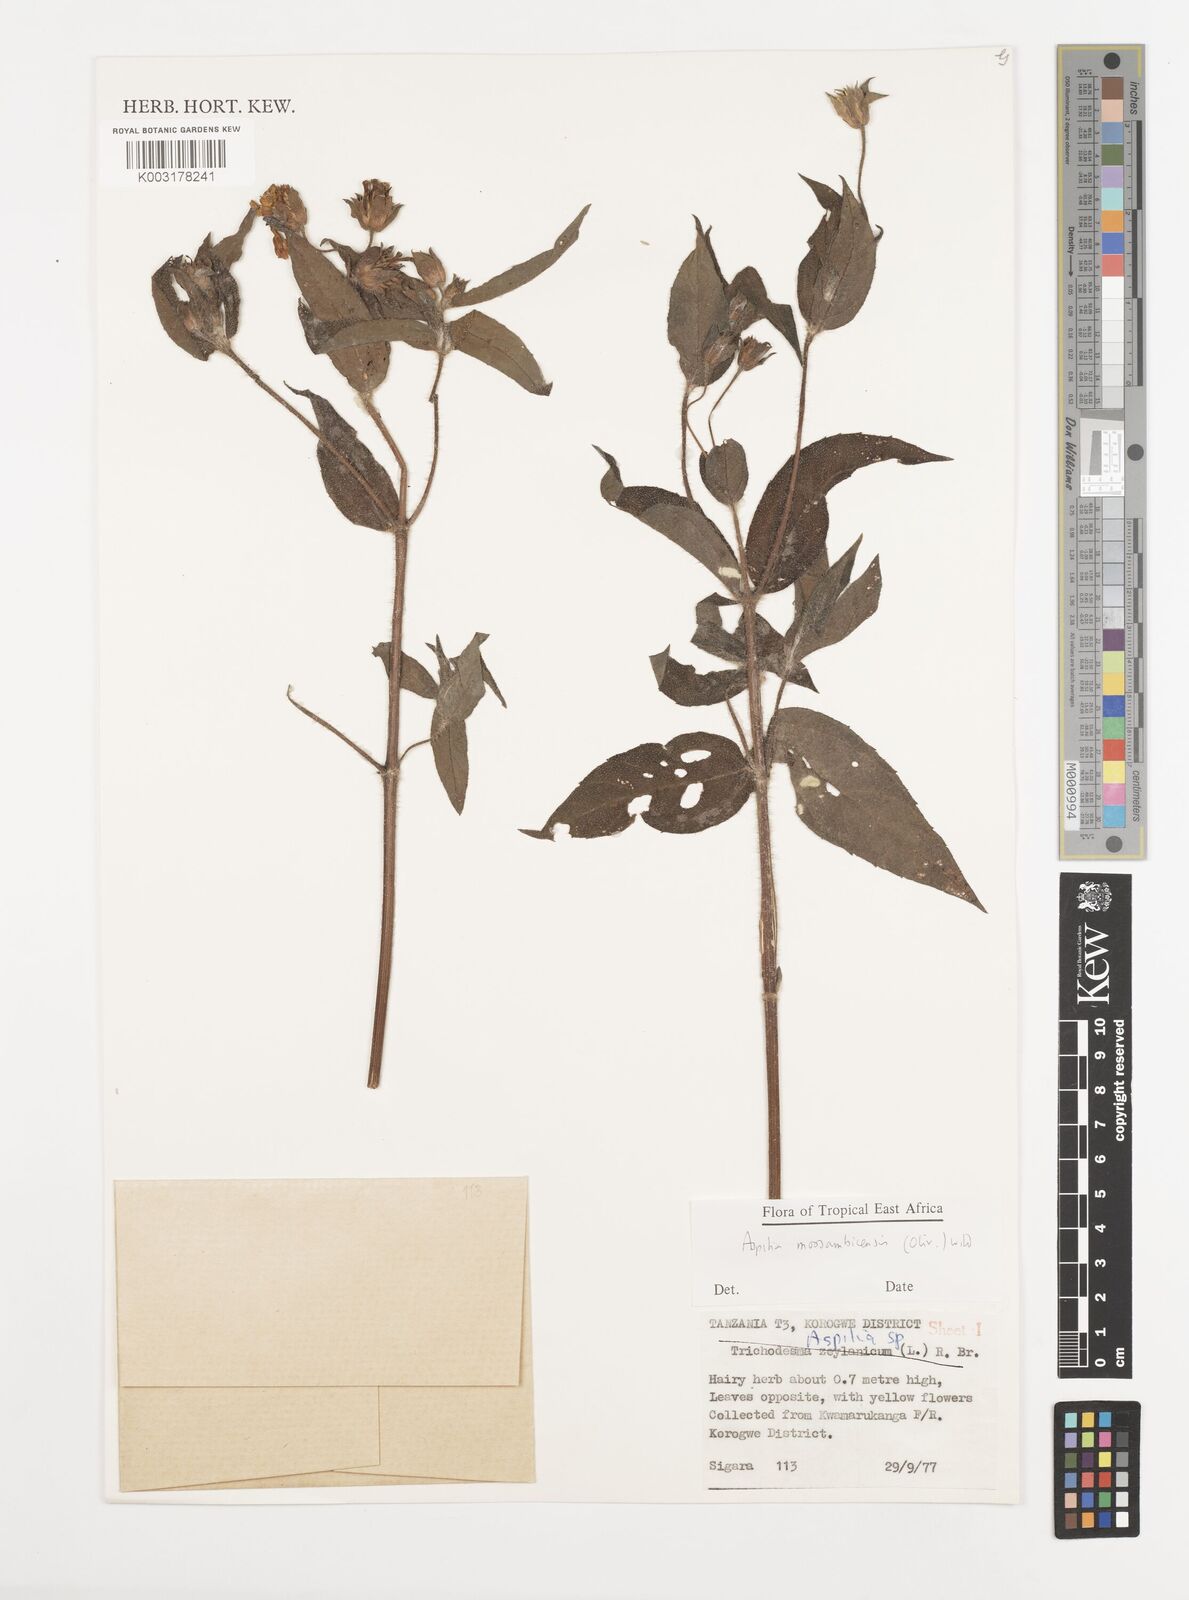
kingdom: Plantae
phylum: Tracheophyta
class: Magnoliopsida
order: Asterales
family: Asteraceae
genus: Aspilia
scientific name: Aspilia mossambicensis
